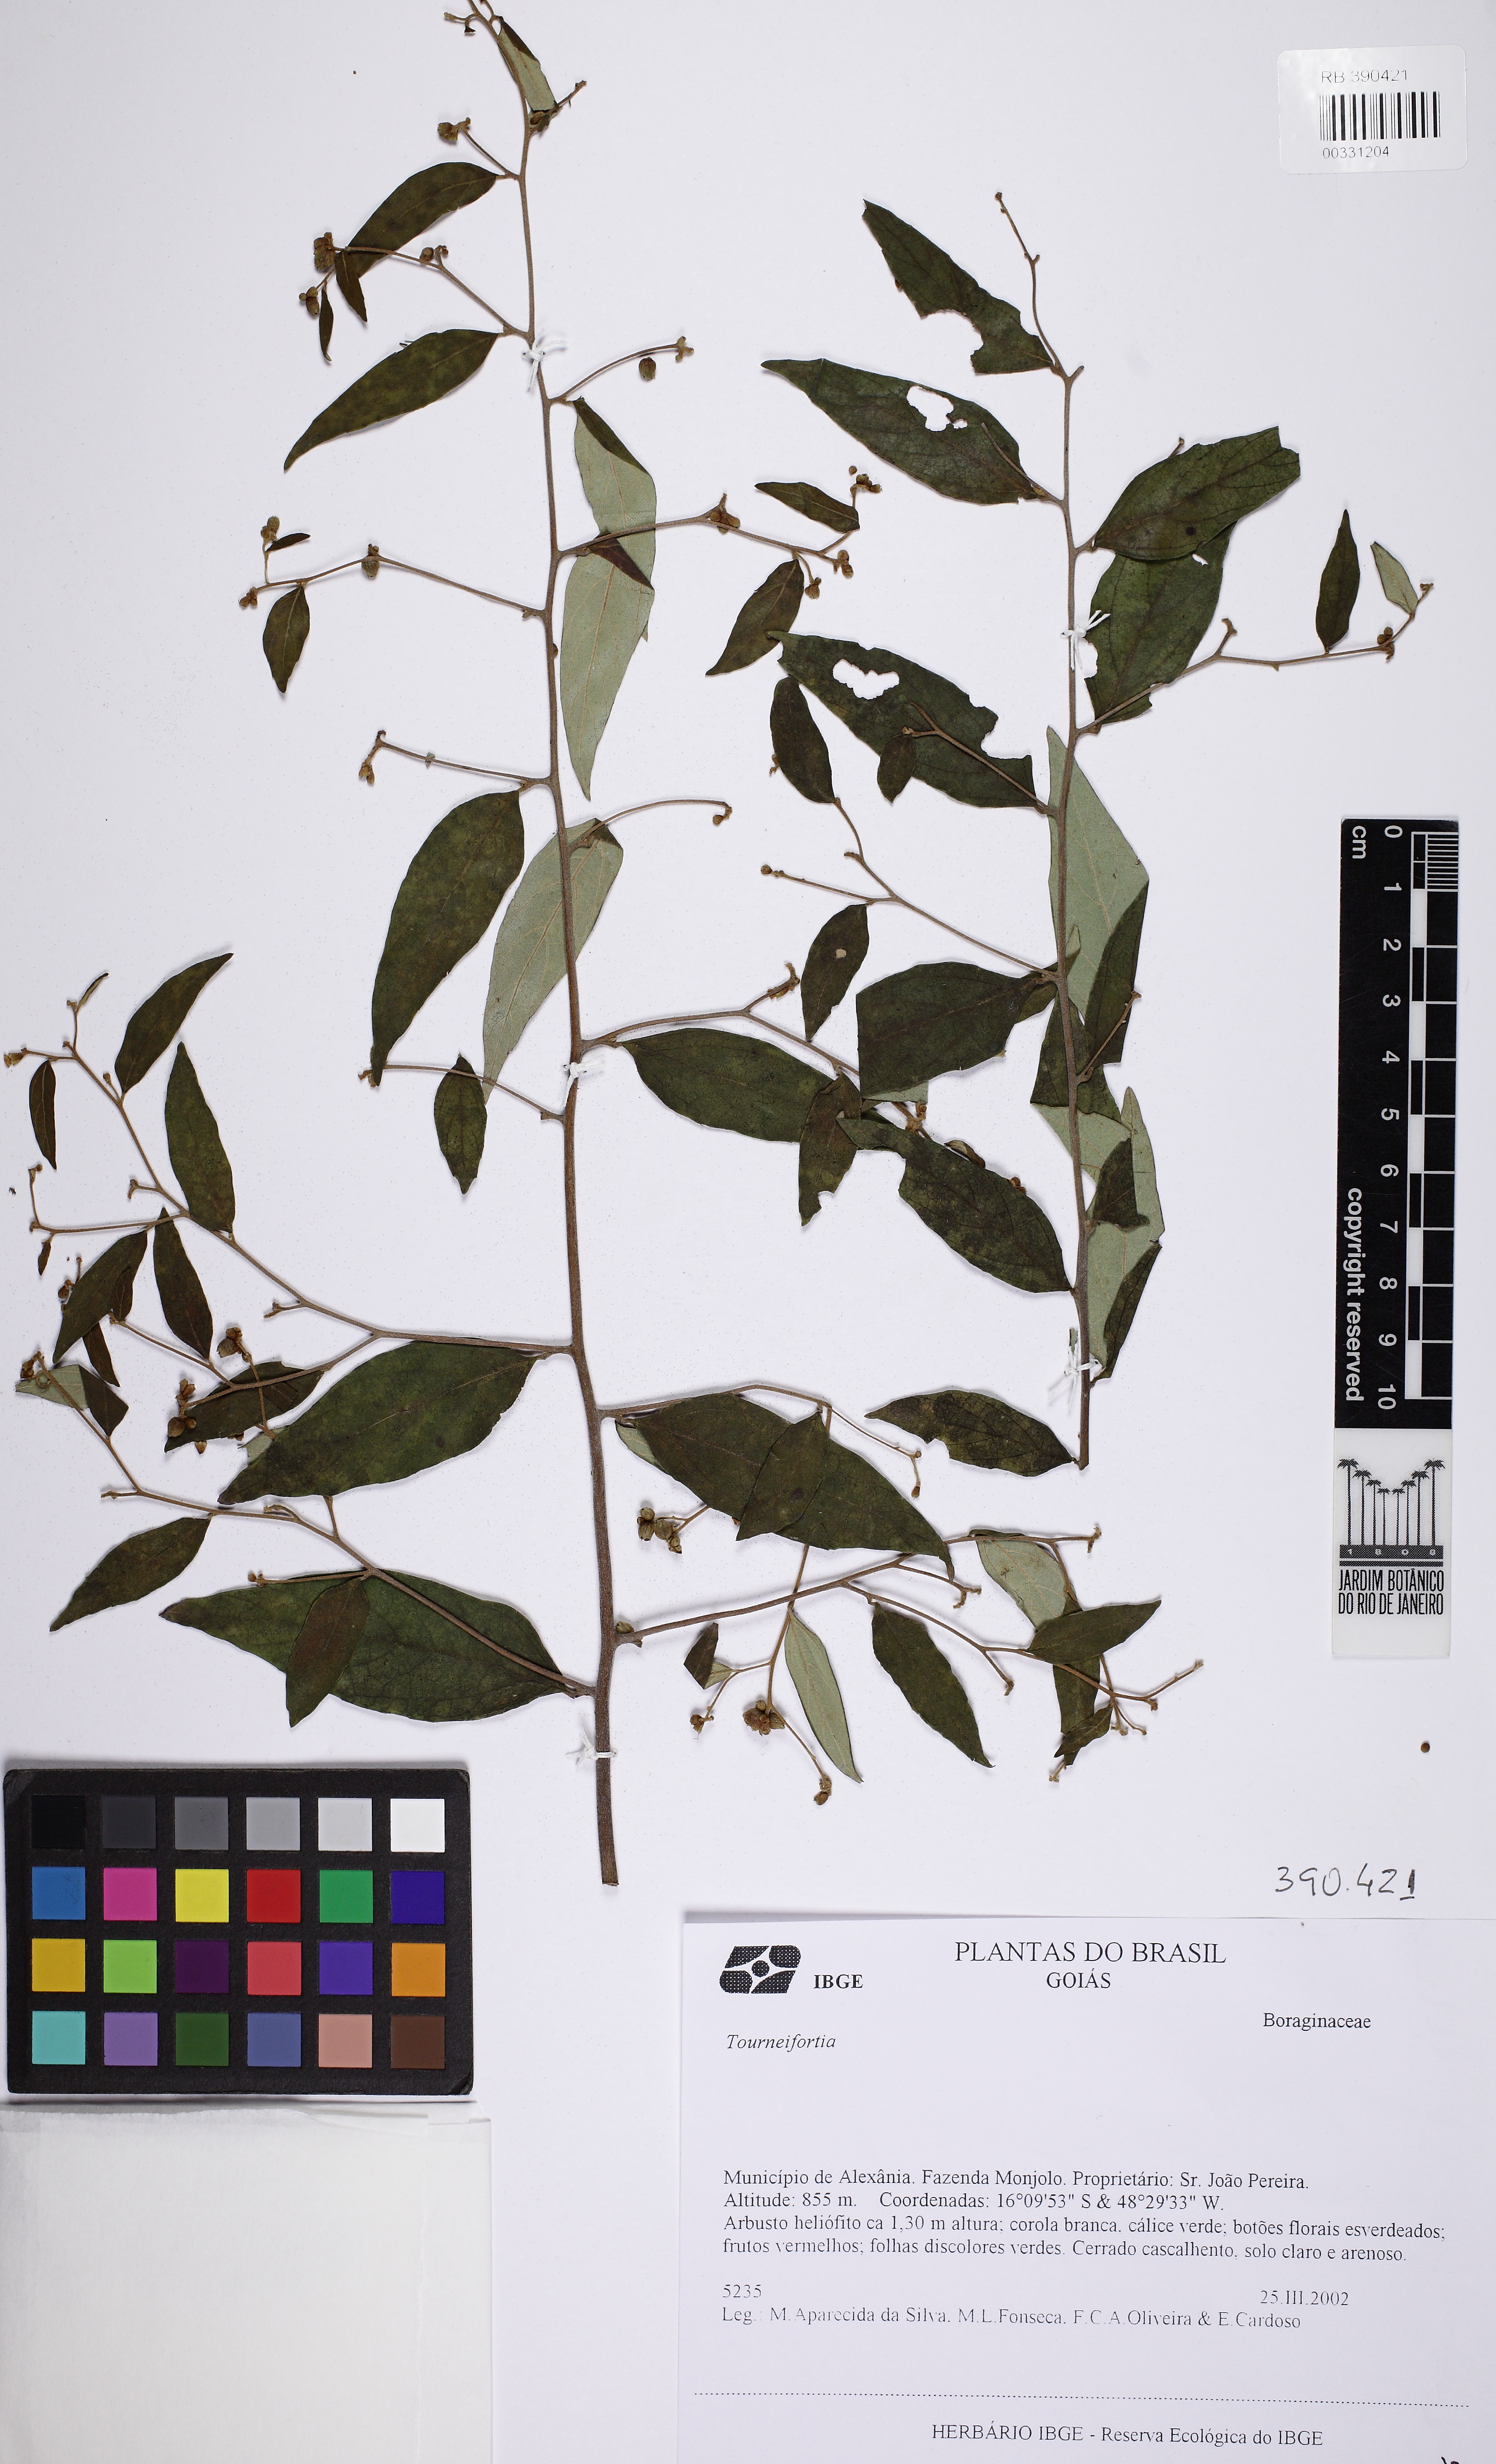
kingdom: Plantae
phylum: Tracheophyta
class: Magnoliopsida
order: Boraginales
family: Cordiaceae
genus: Varronia
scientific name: Varronia
